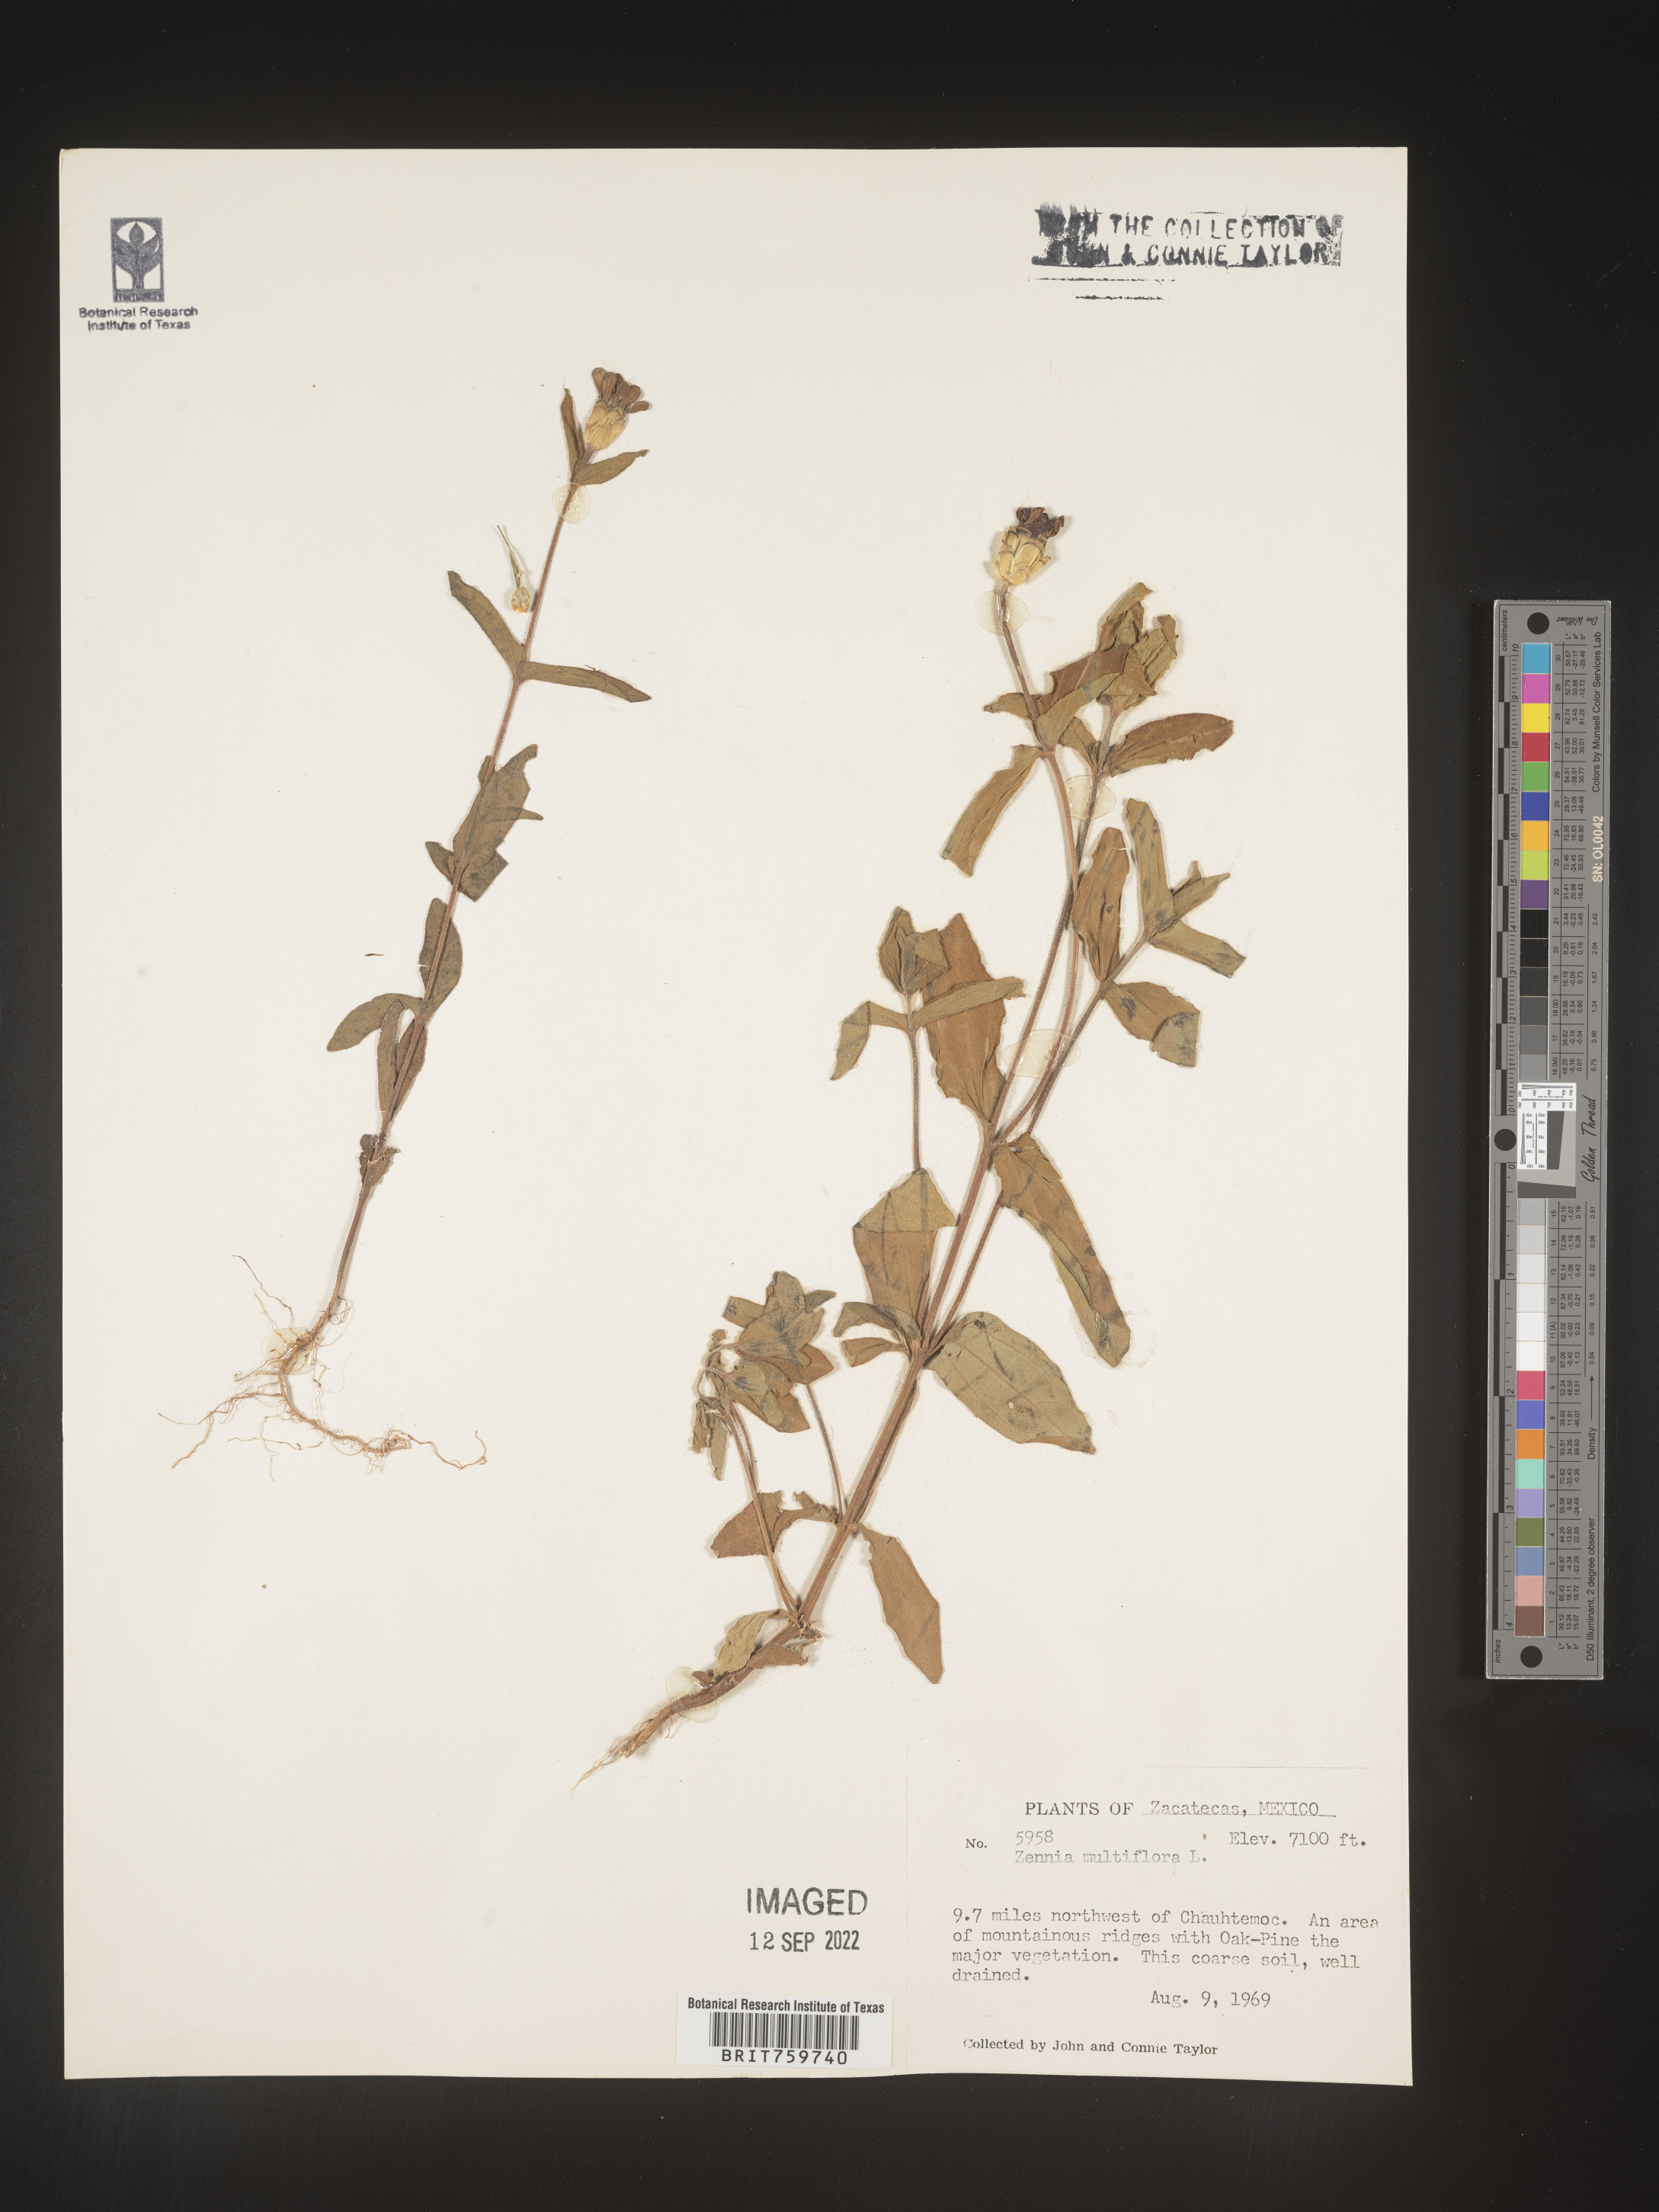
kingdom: Plantae
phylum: Tracheophyta
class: Magnoliopsida
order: Asterales
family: Asteraceae
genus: Zinnia
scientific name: Zinnia
